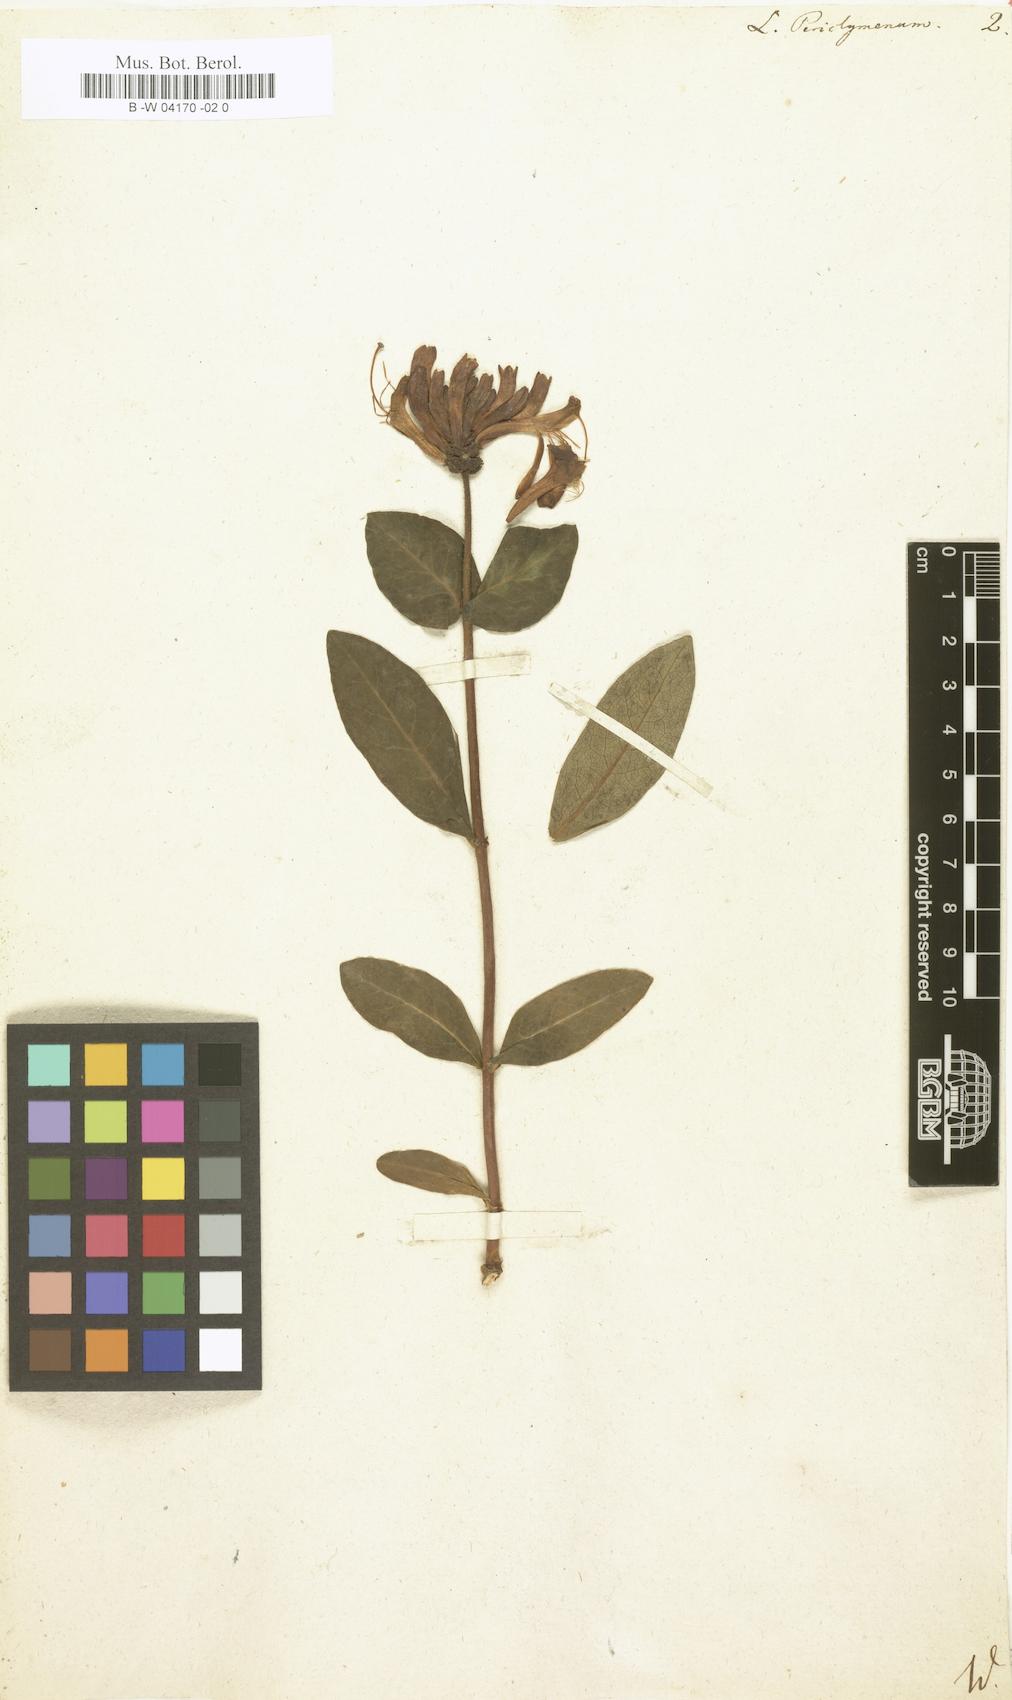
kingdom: Plantae
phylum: Tracheophyta
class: Magnoliopsida
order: Dipsacales
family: Caprifoliaceae
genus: Lonicera
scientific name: Lonicera periclymenum
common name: European honeysuckle
